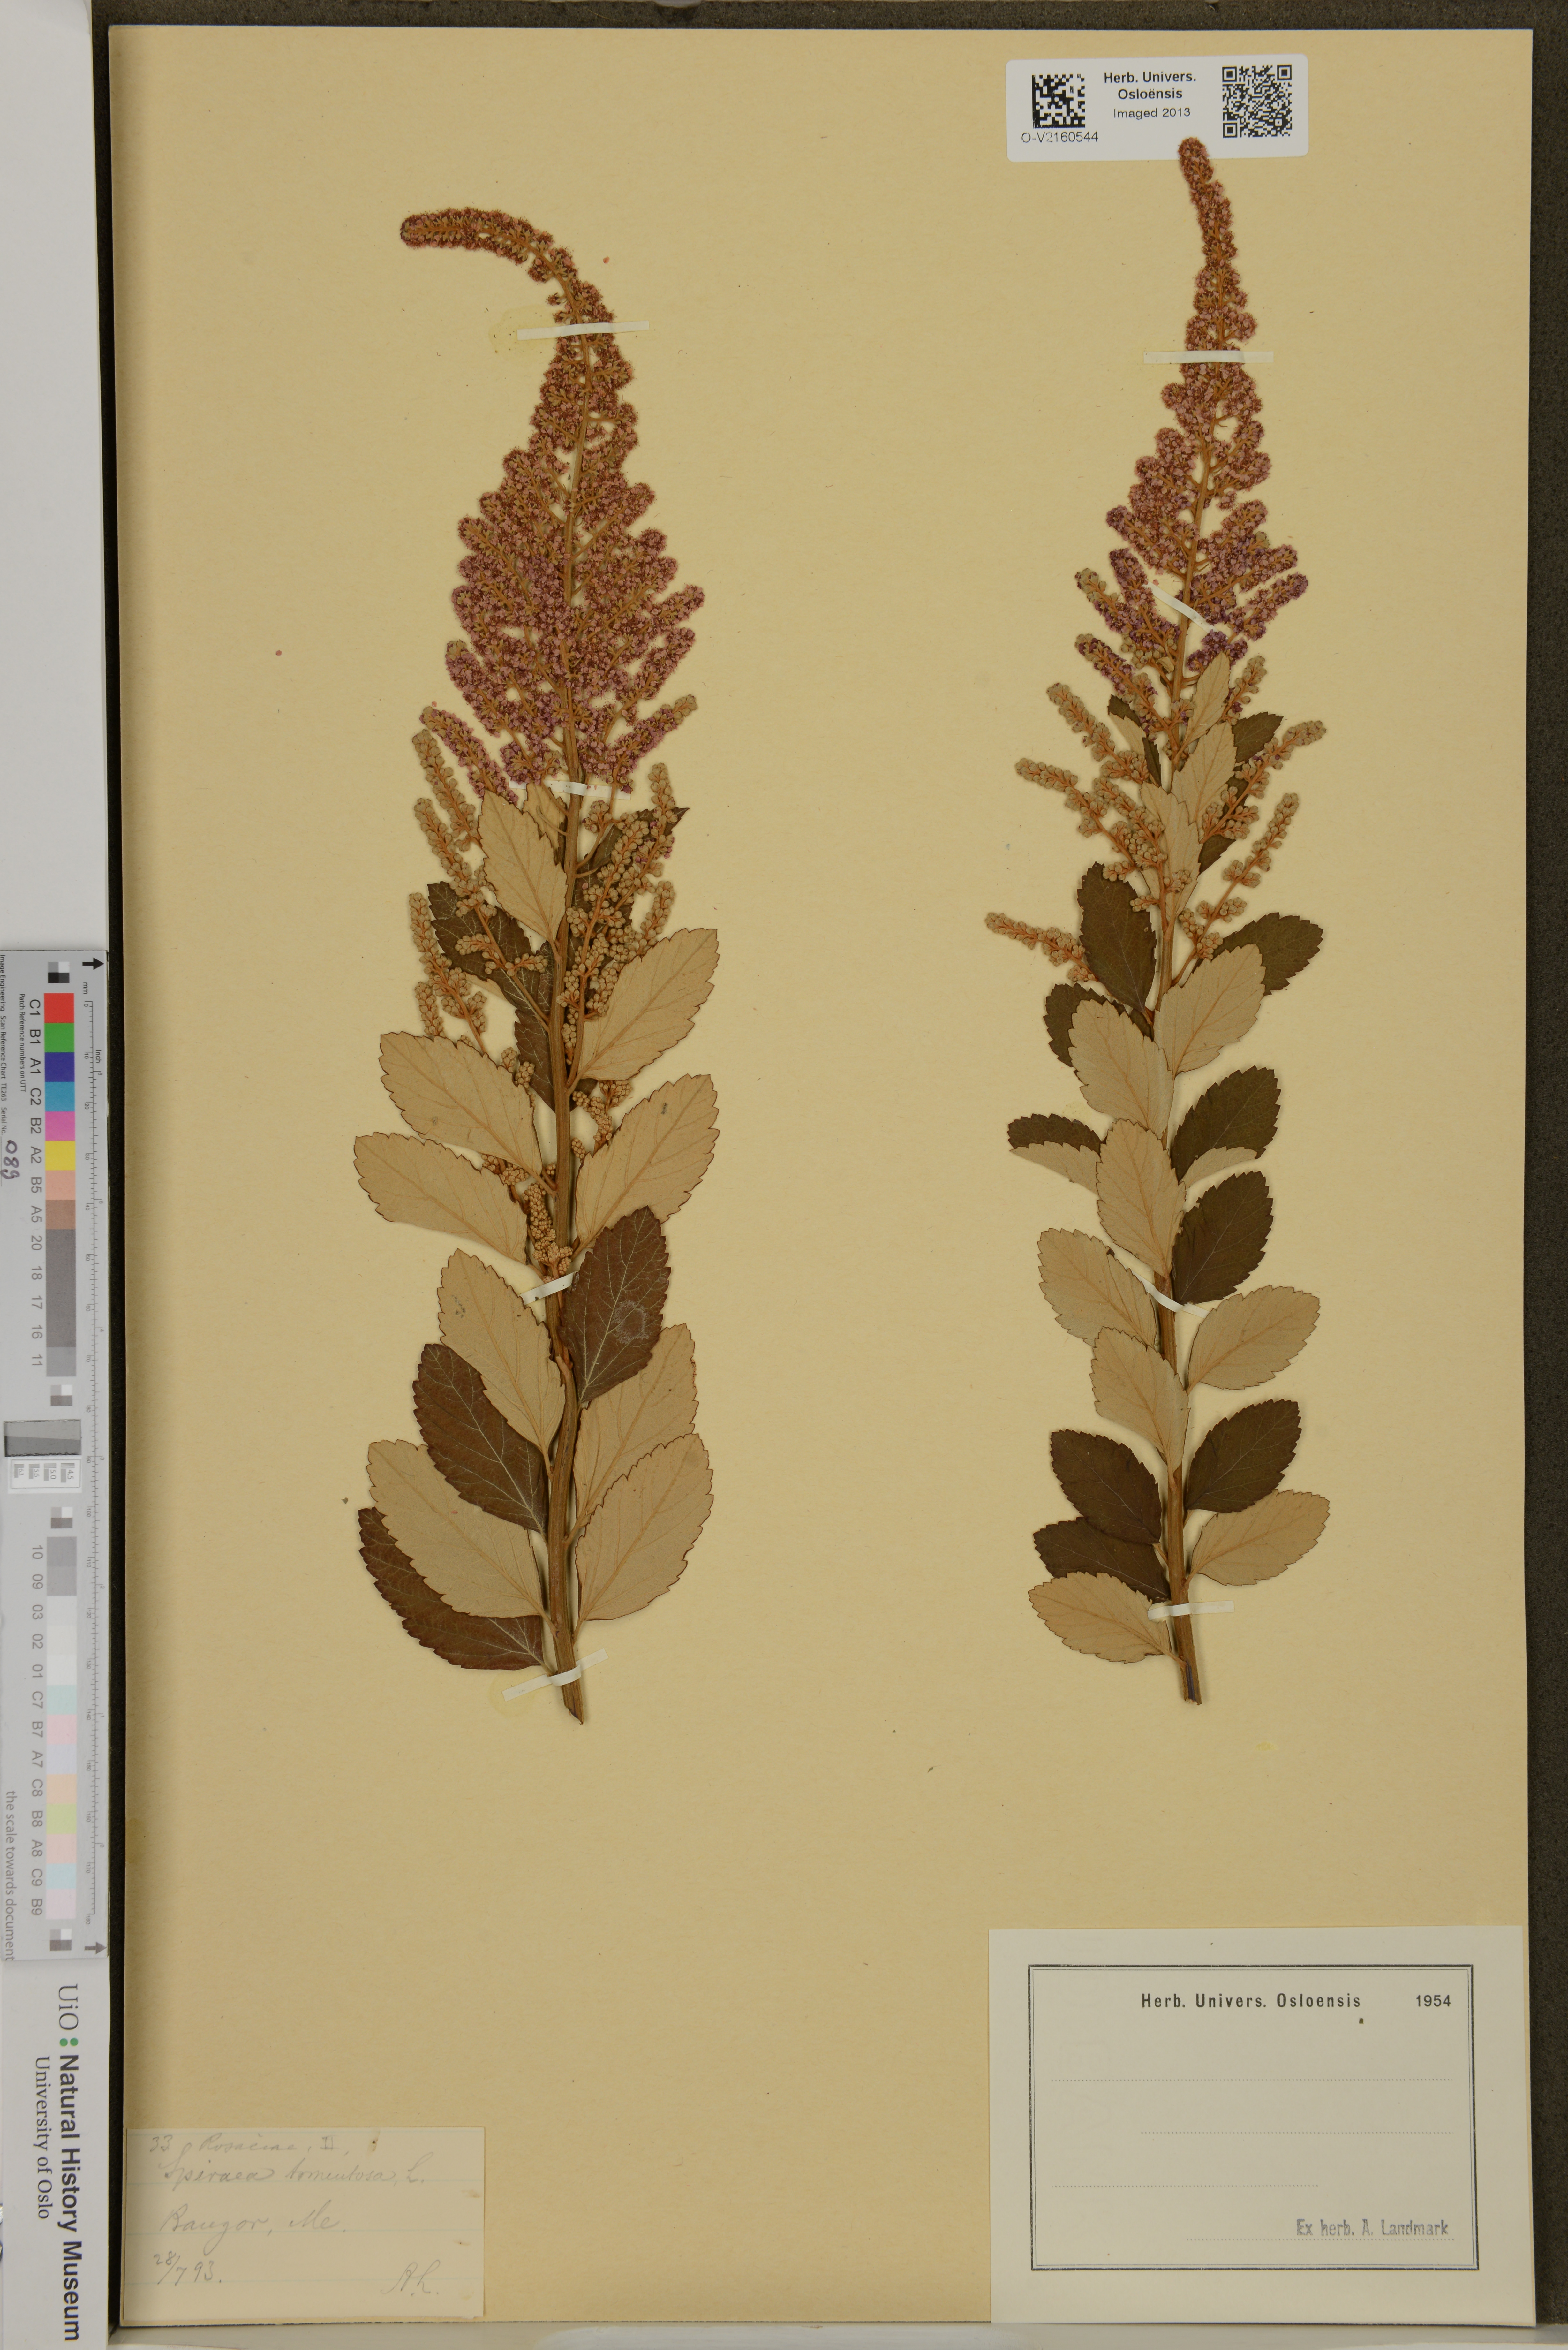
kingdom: Plantae
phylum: Tracheophyta
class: Magnoliopsida
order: Rosales
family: Rosaceae
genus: Spiraea
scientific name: Spiraea tomentosa
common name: Hardhack
